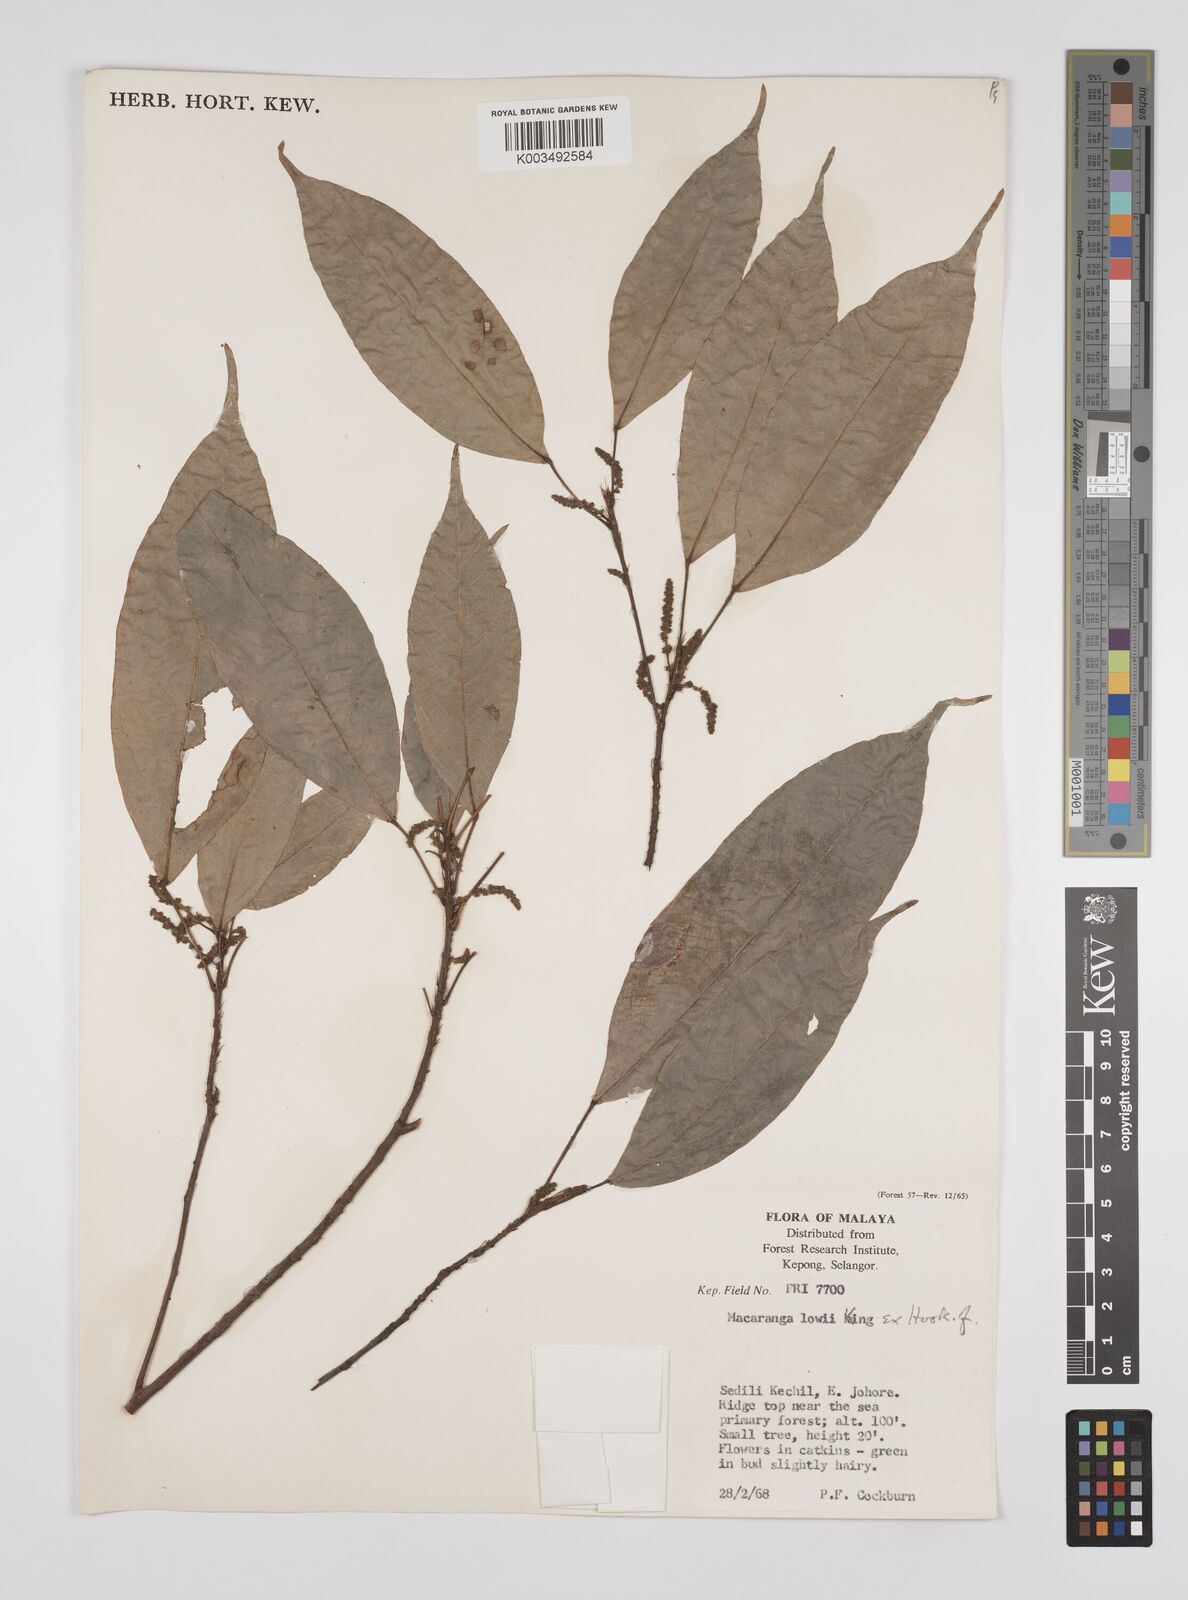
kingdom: Plantae
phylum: Tracheophyta
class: Magnoliopsida
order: Malpighiales
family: Euphorbiaceae
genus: Macaranga
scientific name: Macaranga lowii
